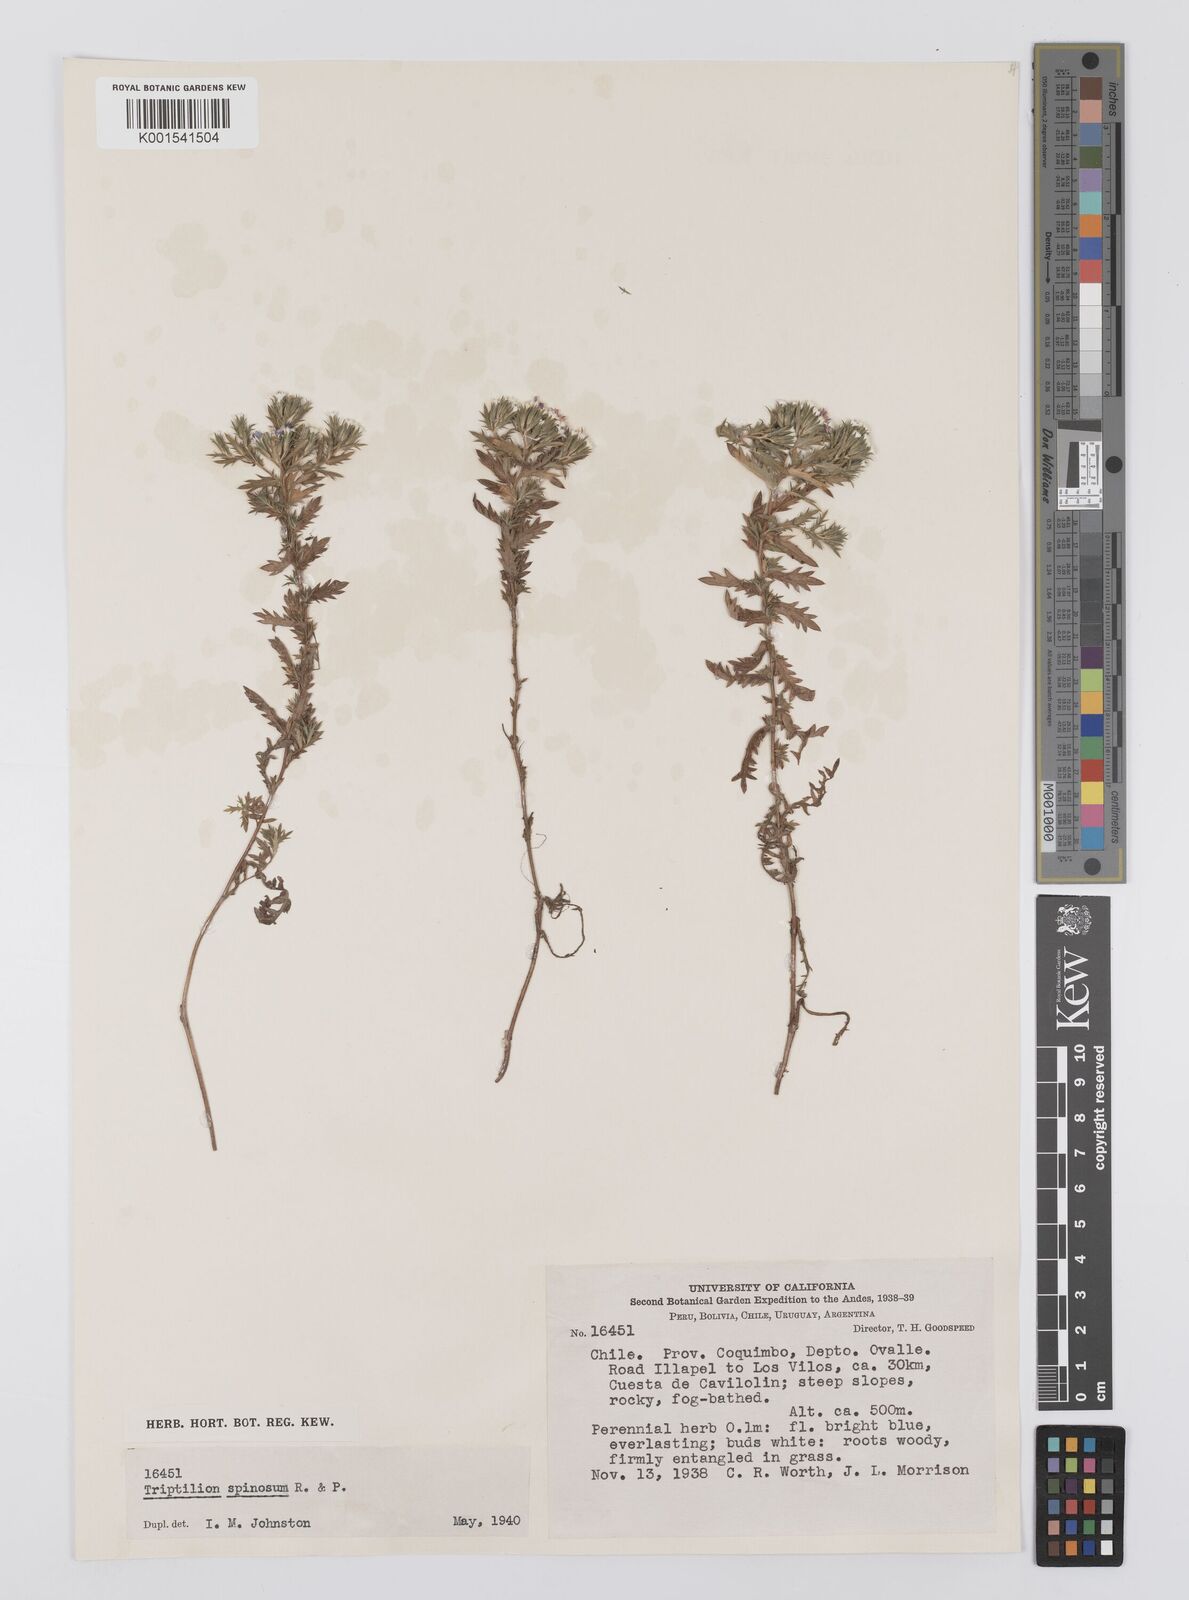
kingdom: Plantae
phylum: Tracheophyta
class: Magnoliopsida
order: Asterales
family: Asteraceae
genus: Triptilion
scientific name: Triptilion spinosum
